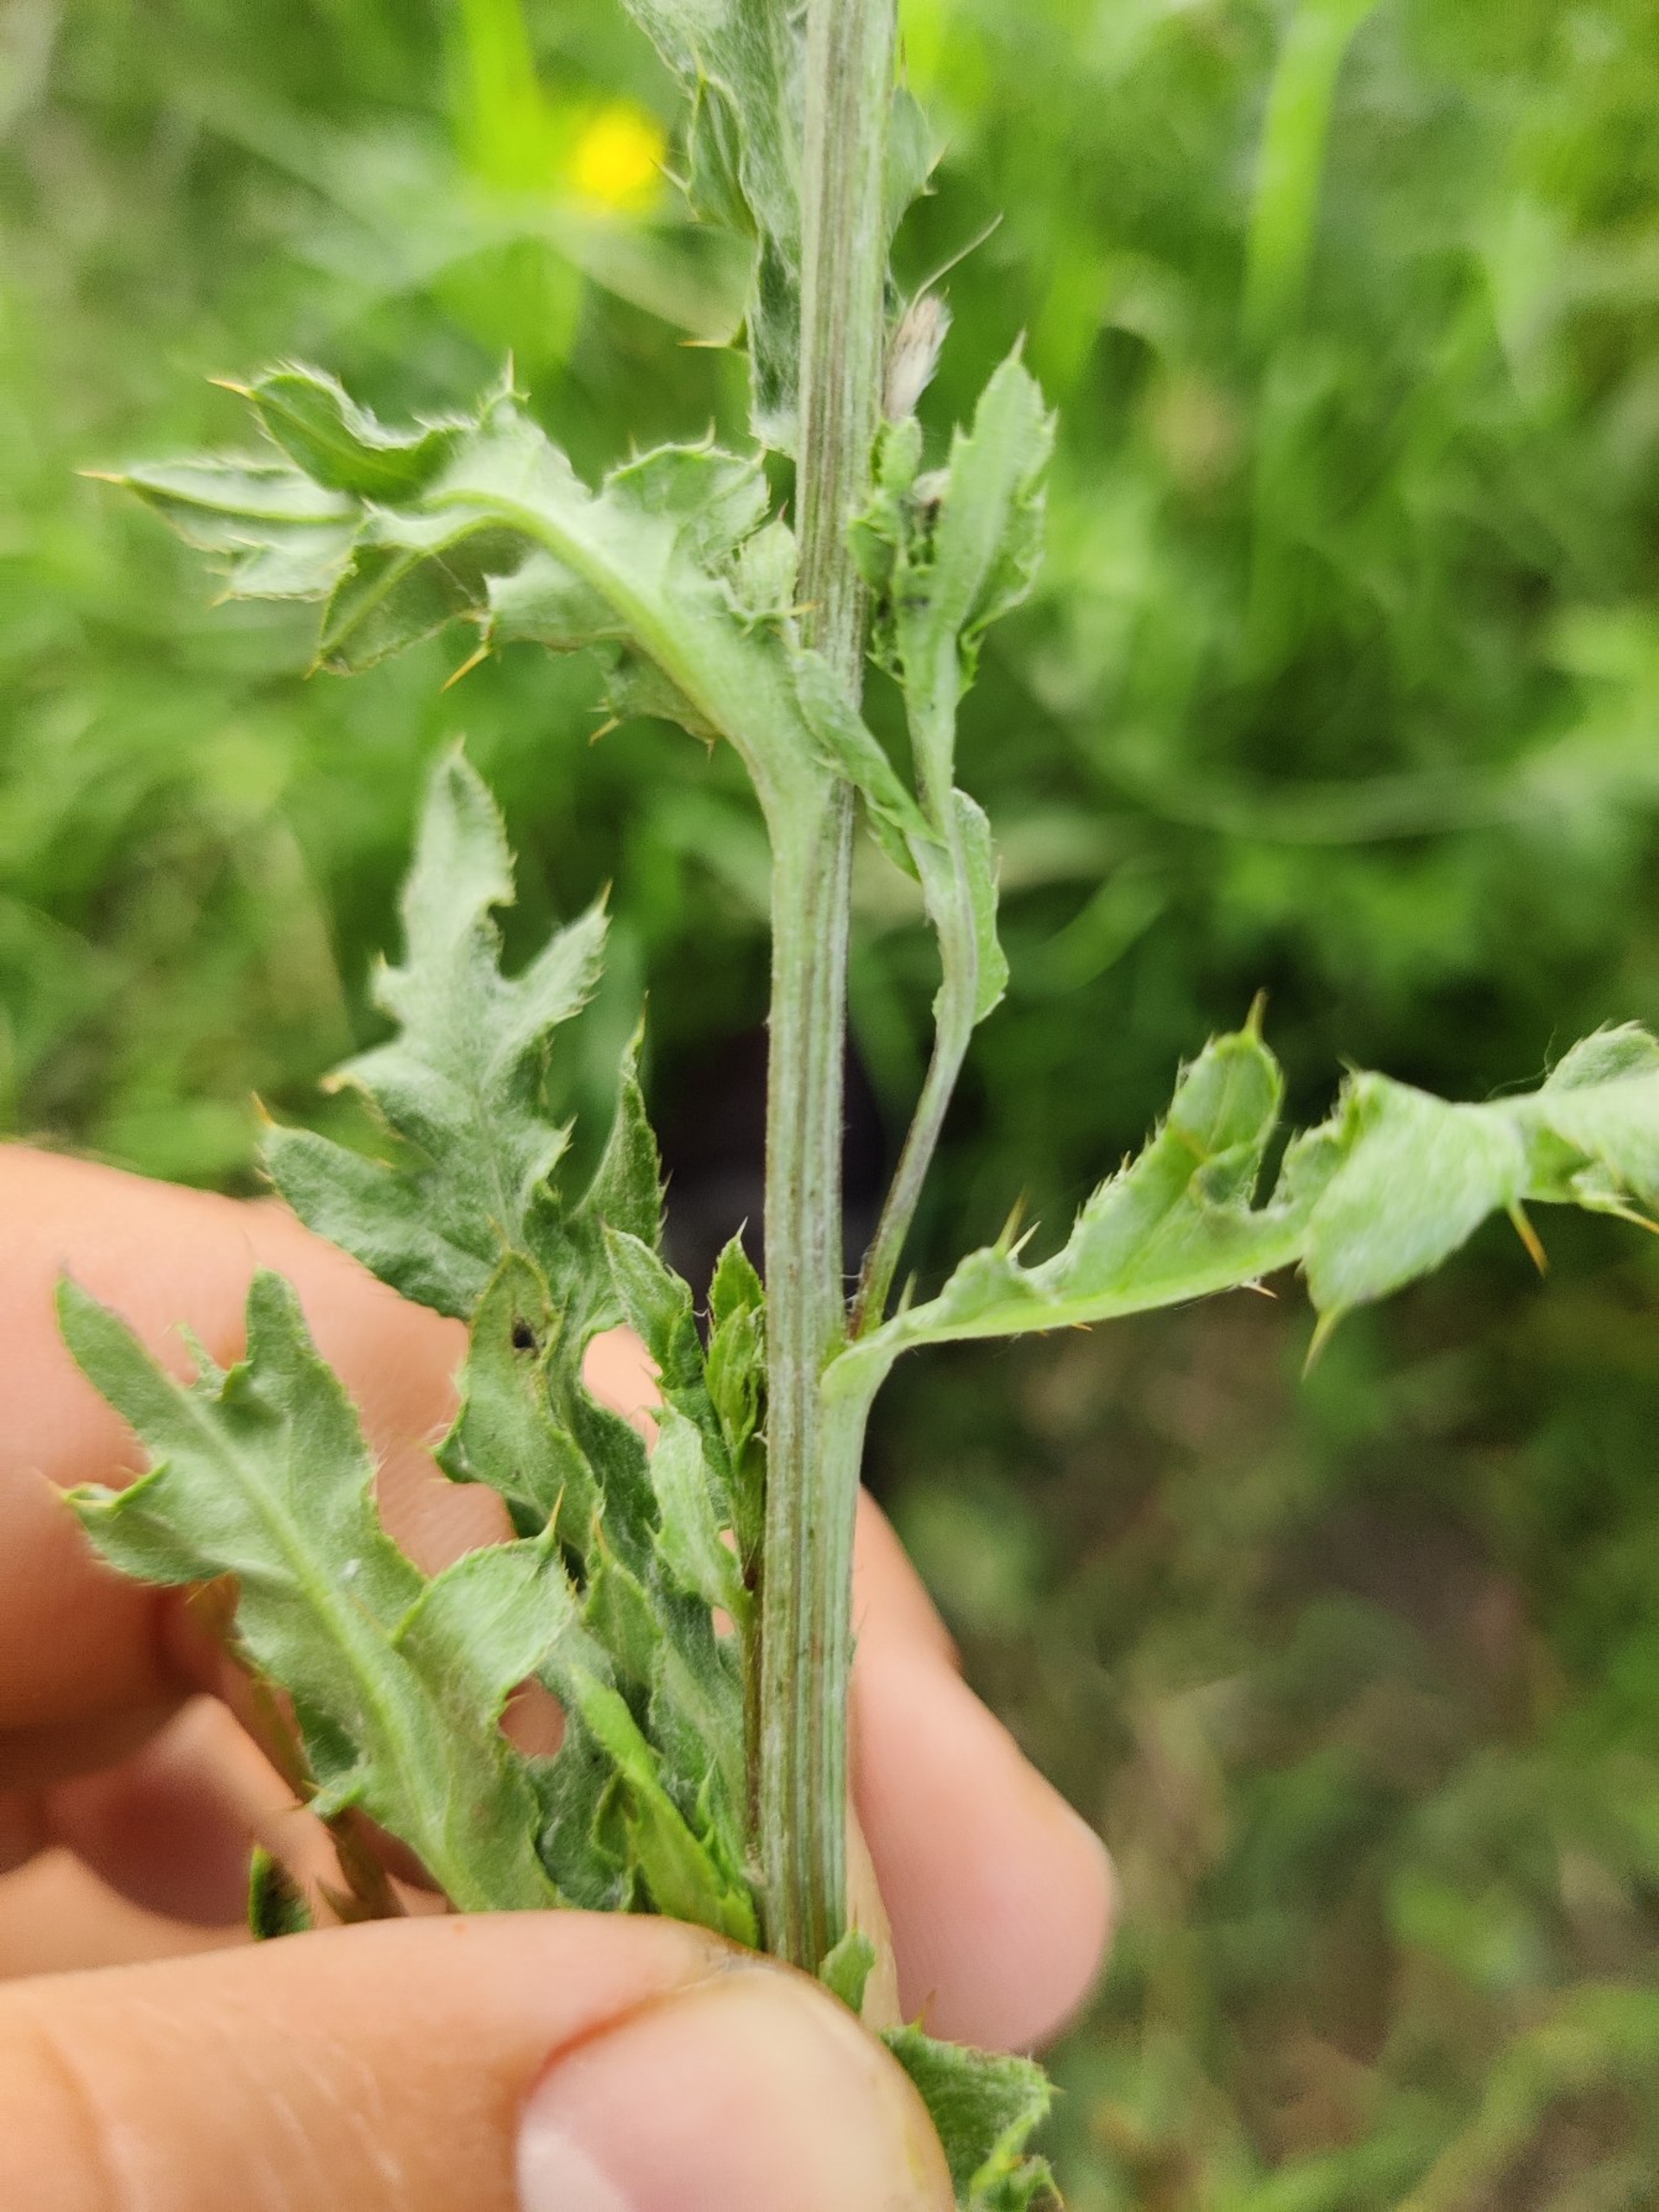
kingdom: Plantae
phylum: Tracheophyta
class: Magnoliopsida
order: Asterales
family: Asteraceae
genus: Cirsium
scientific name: Cirsium arvense
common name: Ager-tidsel
